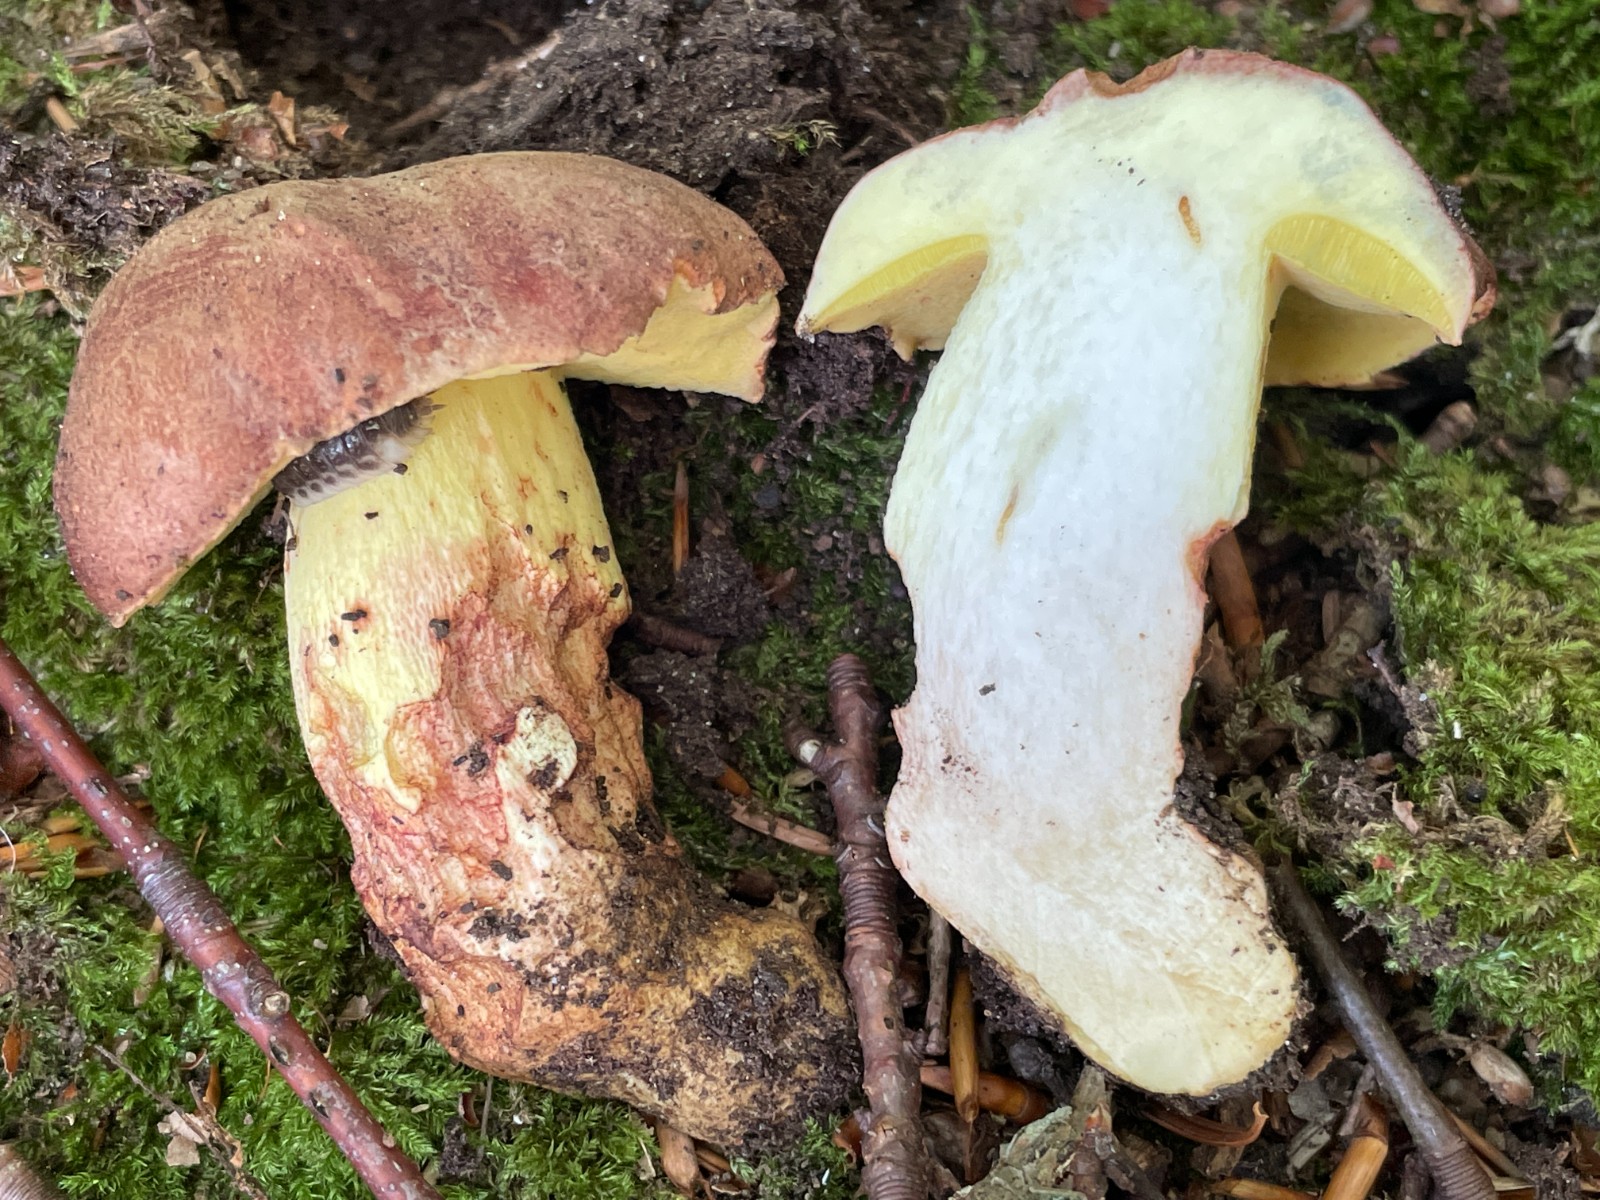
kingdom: Fungi
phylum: Basidiomycota
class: Agaricomycetes
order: Boletales
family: Boletaceae
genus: Butyriboletus
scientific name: Butyriboletus appendiculatus
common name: tenstokket rørhat
